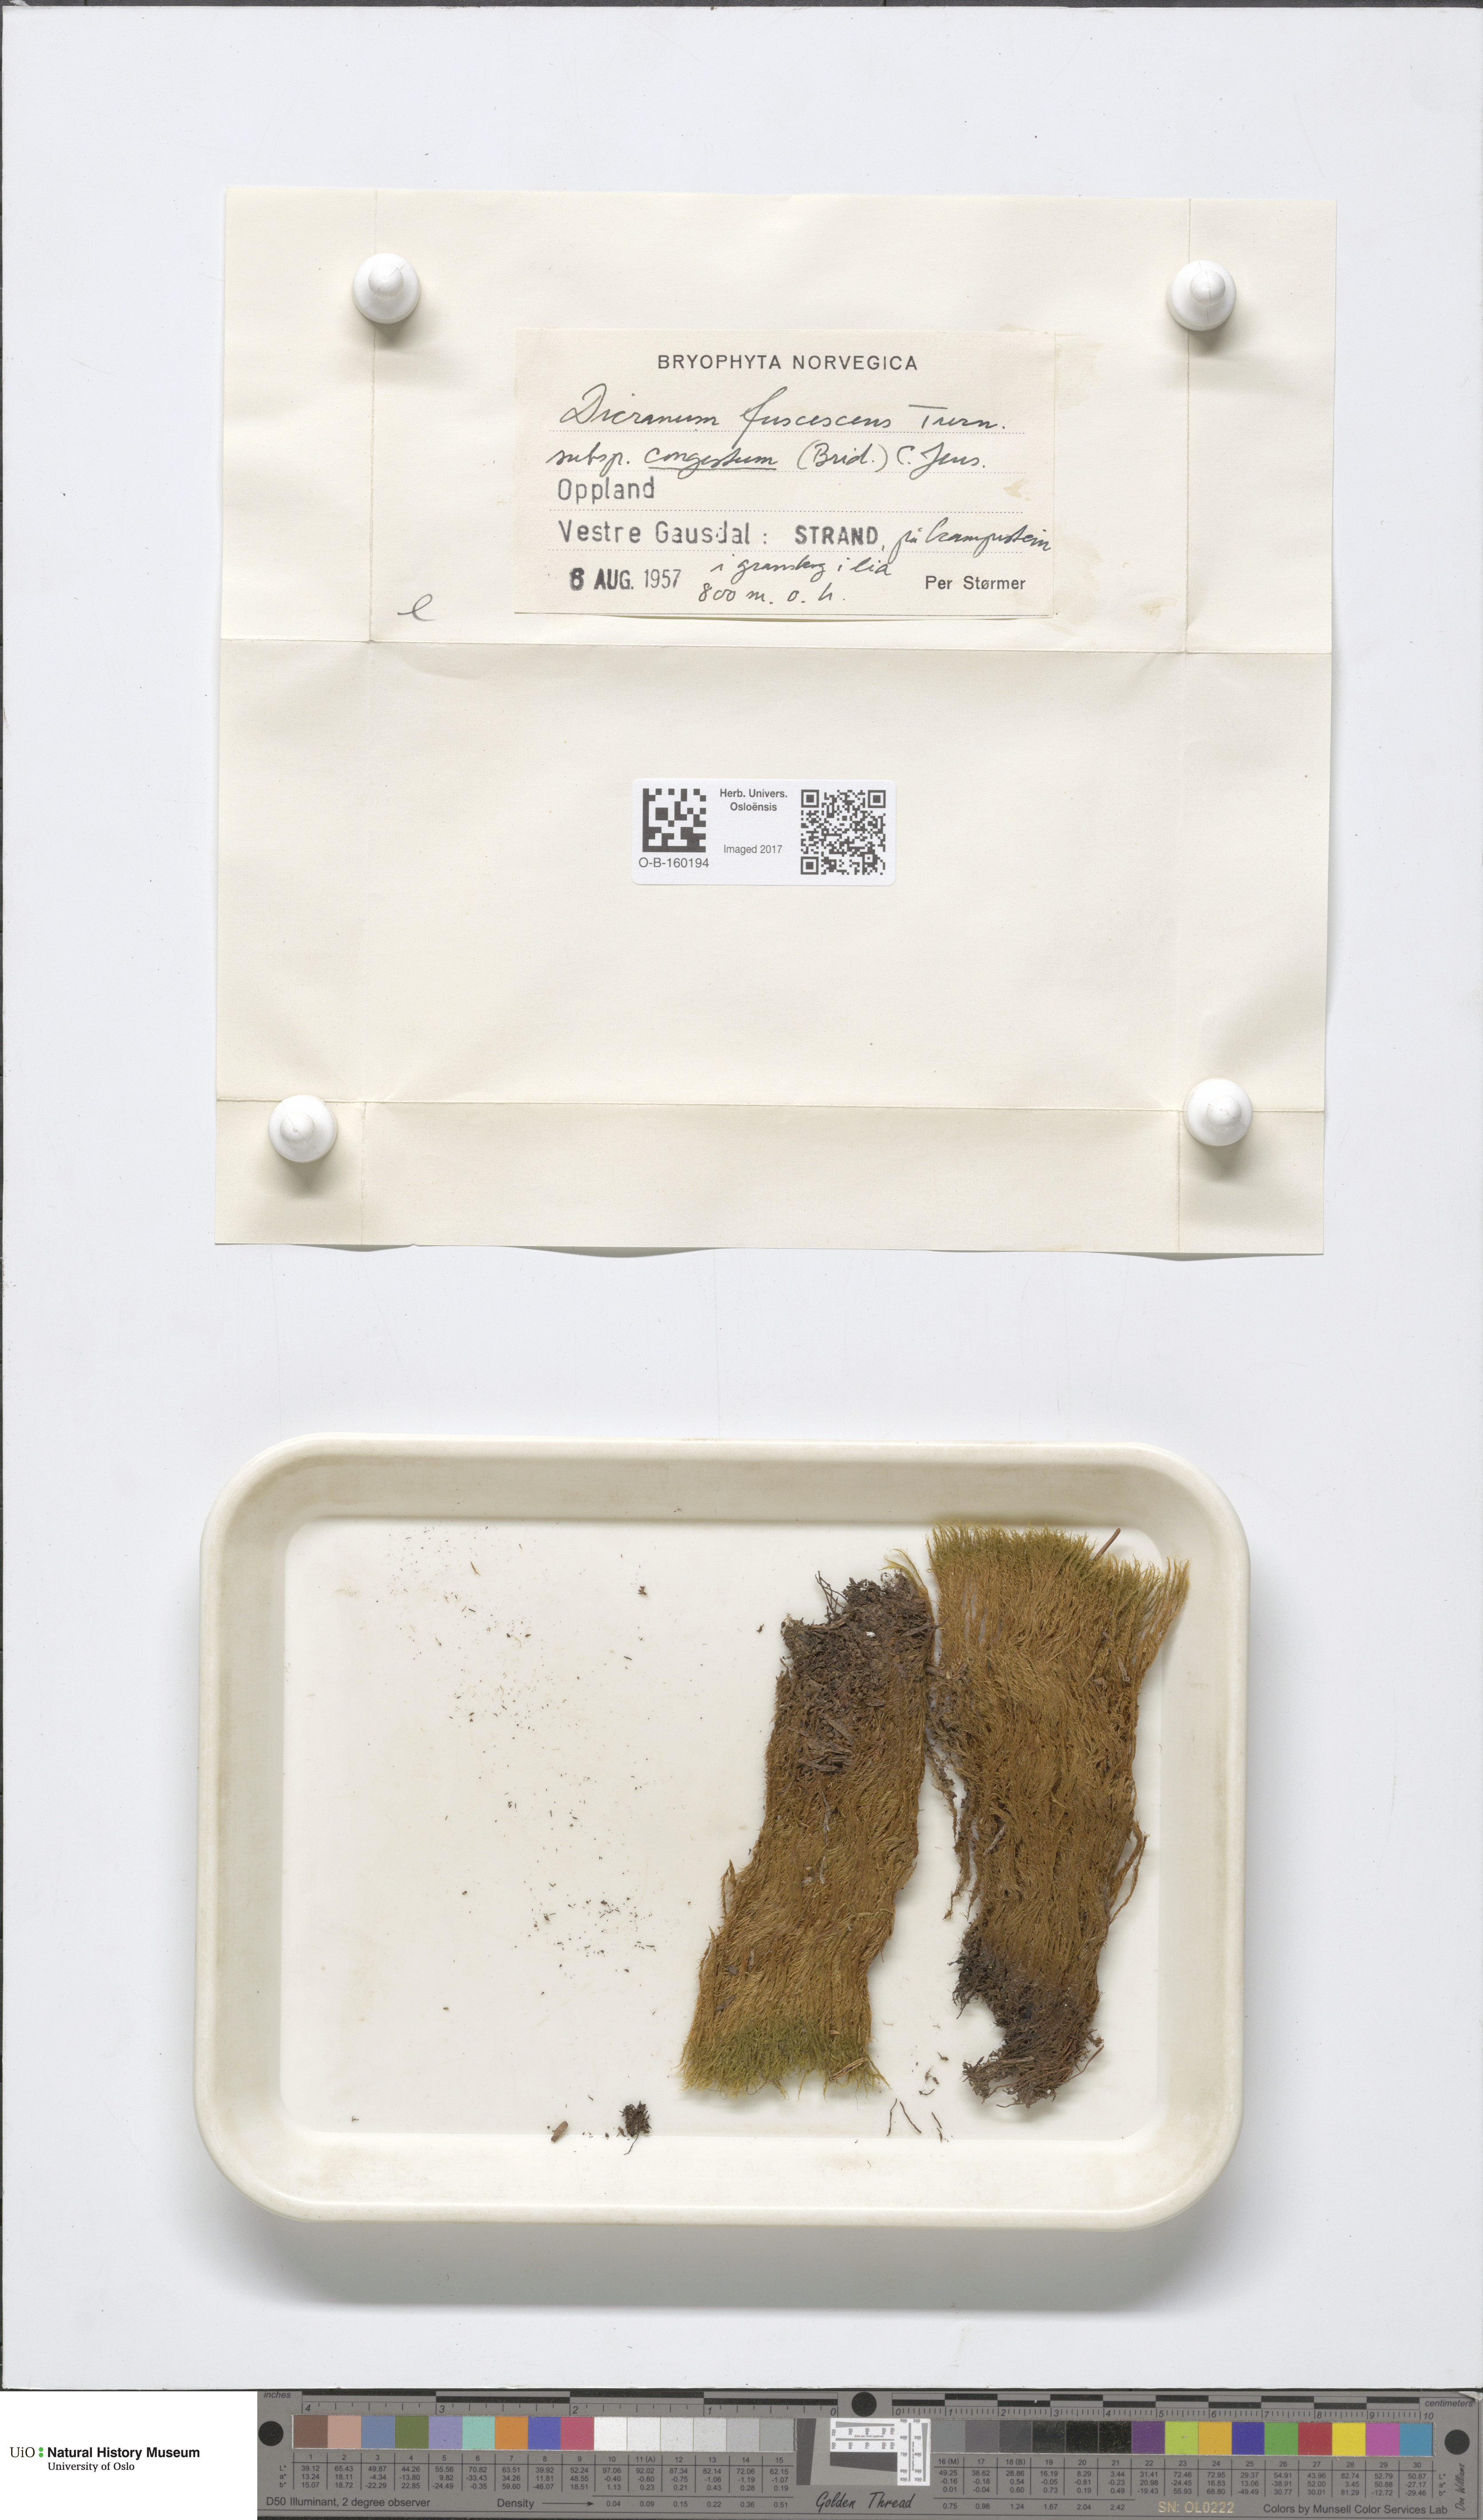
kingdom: Plantae
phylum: Bryophyta
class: Bryopsida
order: Dicranales
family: Dicranaceae
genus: Dicranum
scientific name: Dicranum flexicaule
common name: Bendy heron s-bill moss
